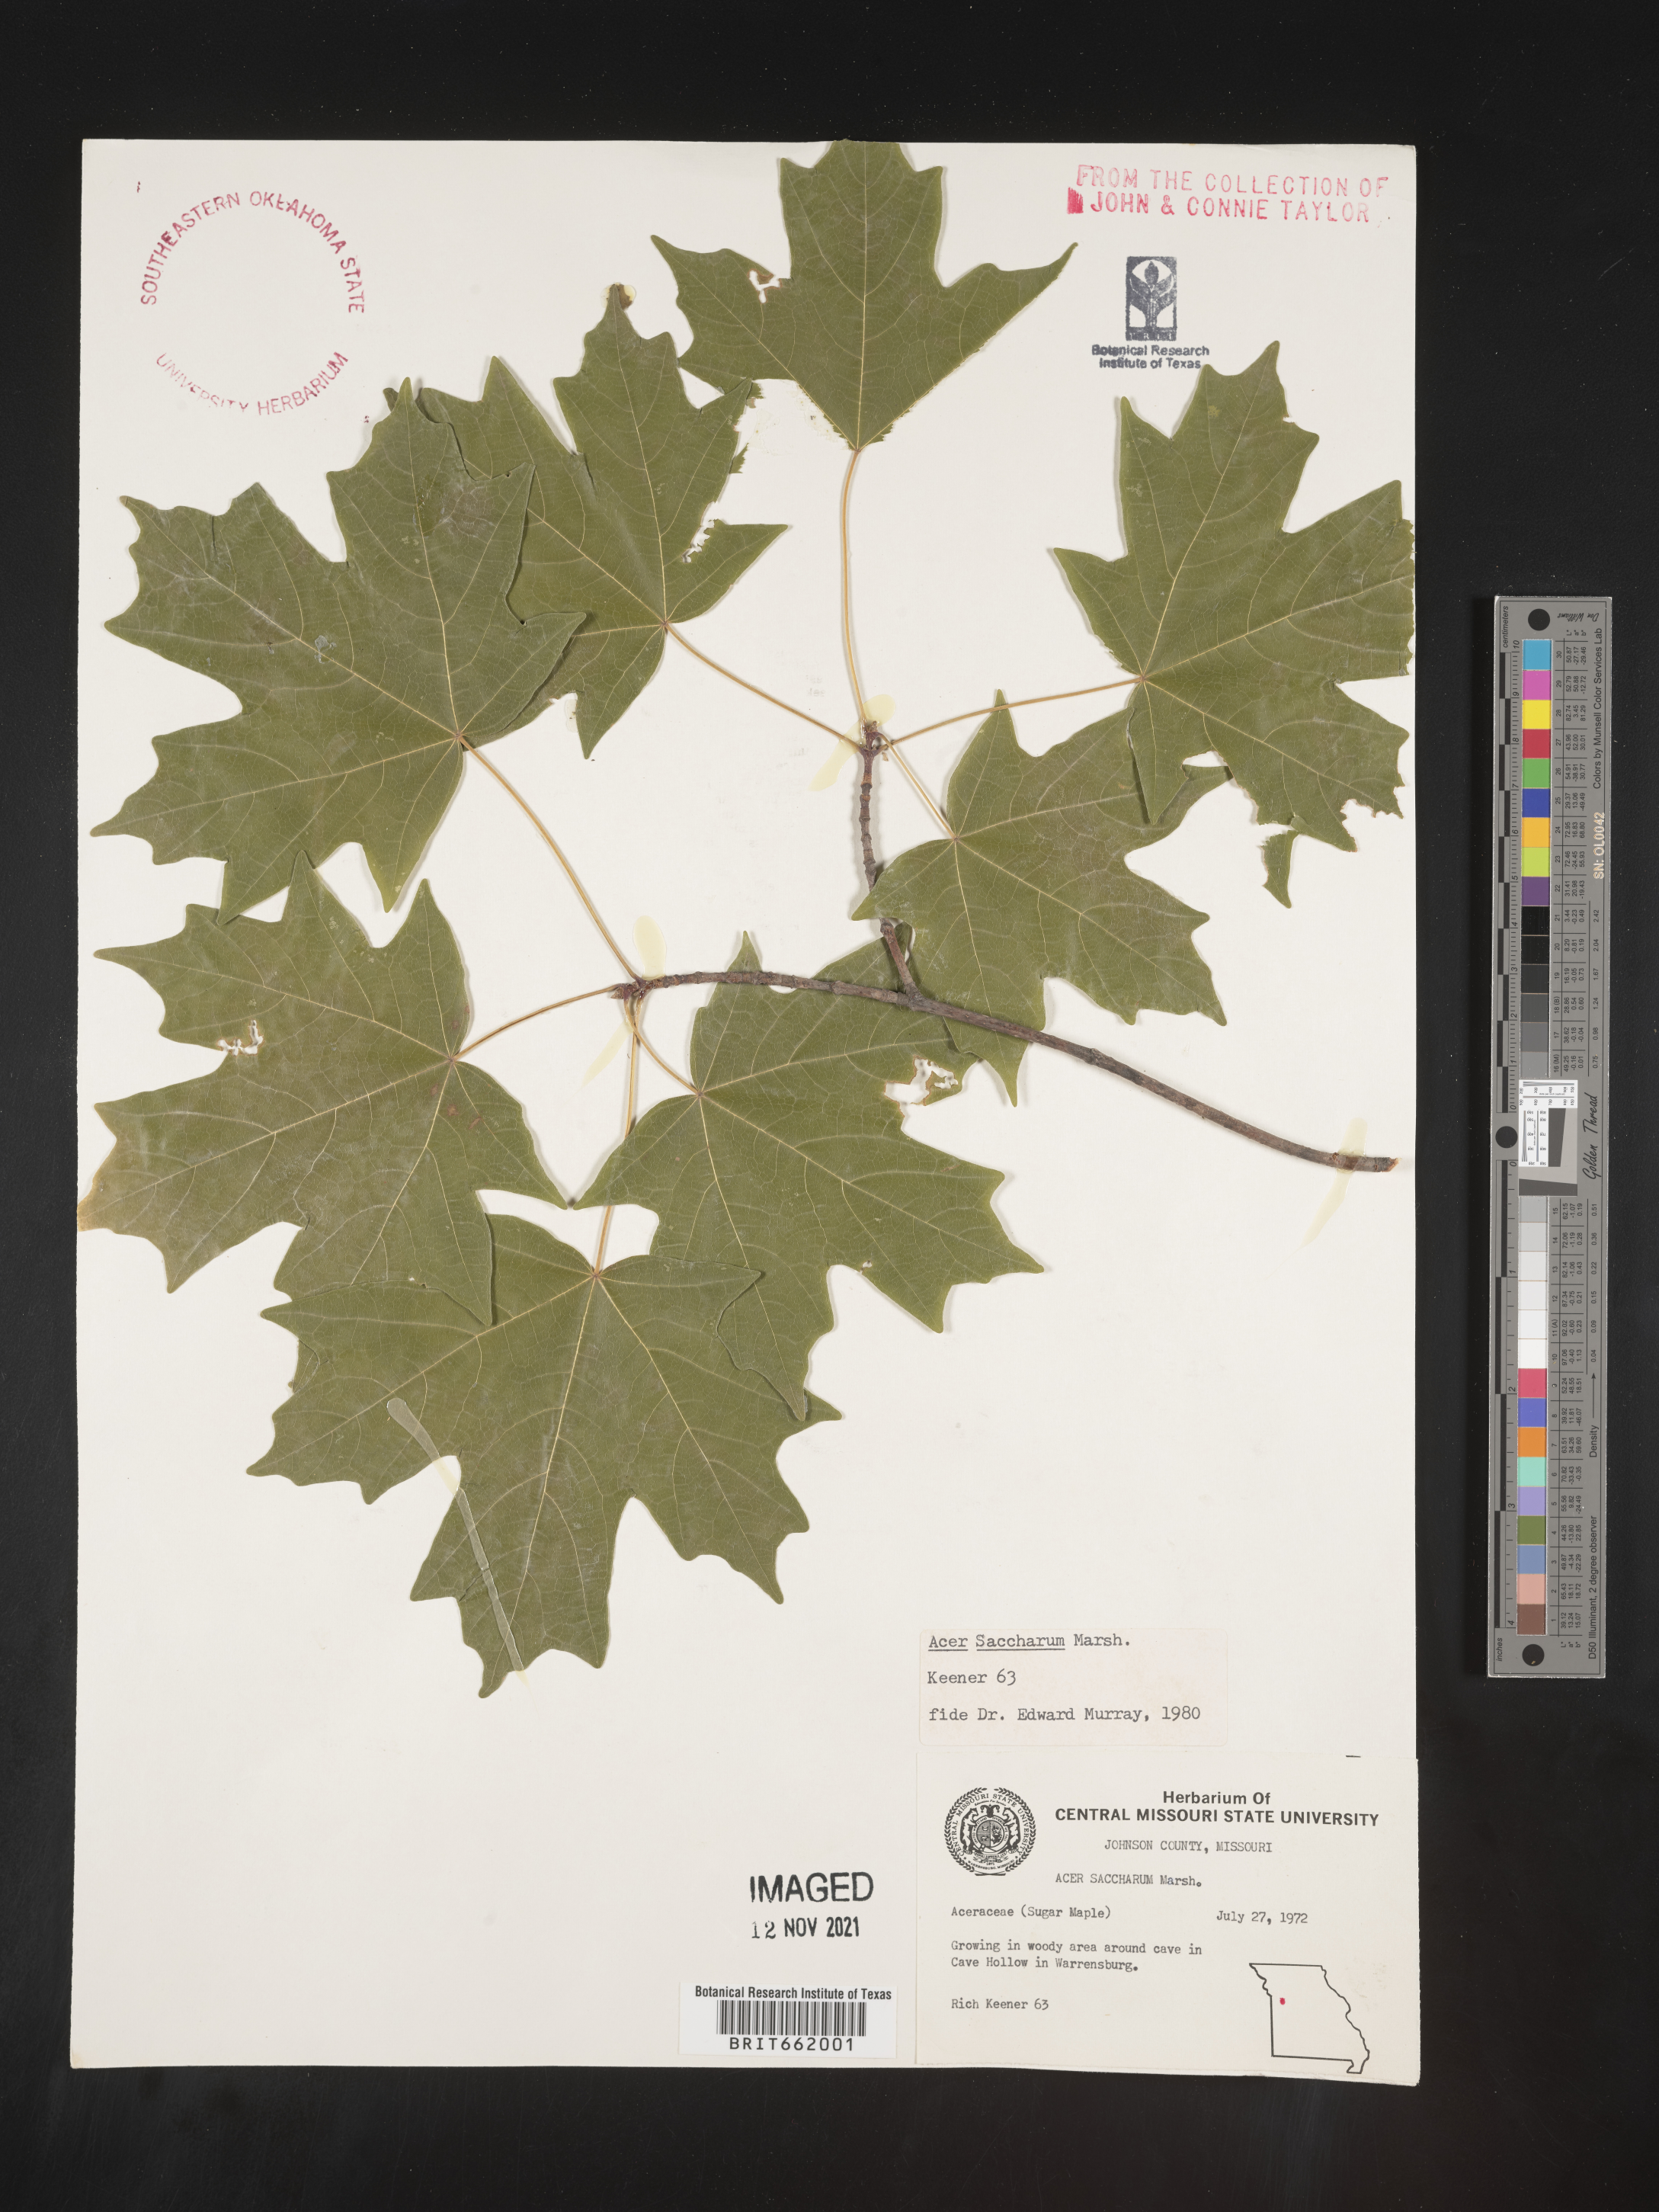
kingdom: Plantae
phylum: Tracheophyta
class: Magnoliopsida
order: Sapindales
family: Sapindaceae
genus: Acer
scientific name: Acer saccharum
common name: Sugar maple
